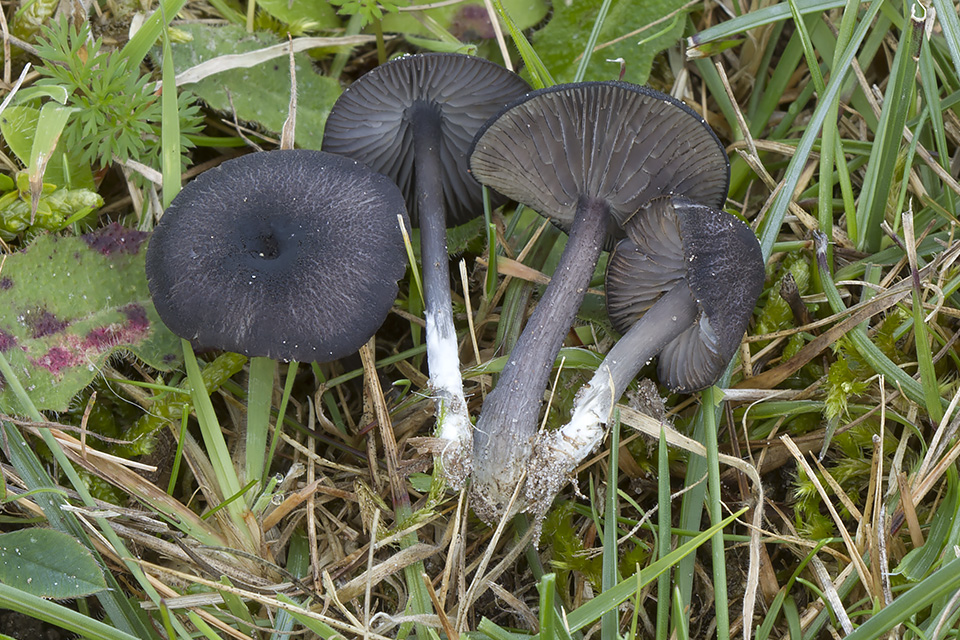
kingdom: Fungi
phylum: Basidiomycota
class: Agaricomycetes
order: Agaricales
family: Entolomataceae
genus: Entoloma
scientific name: Entoloma
